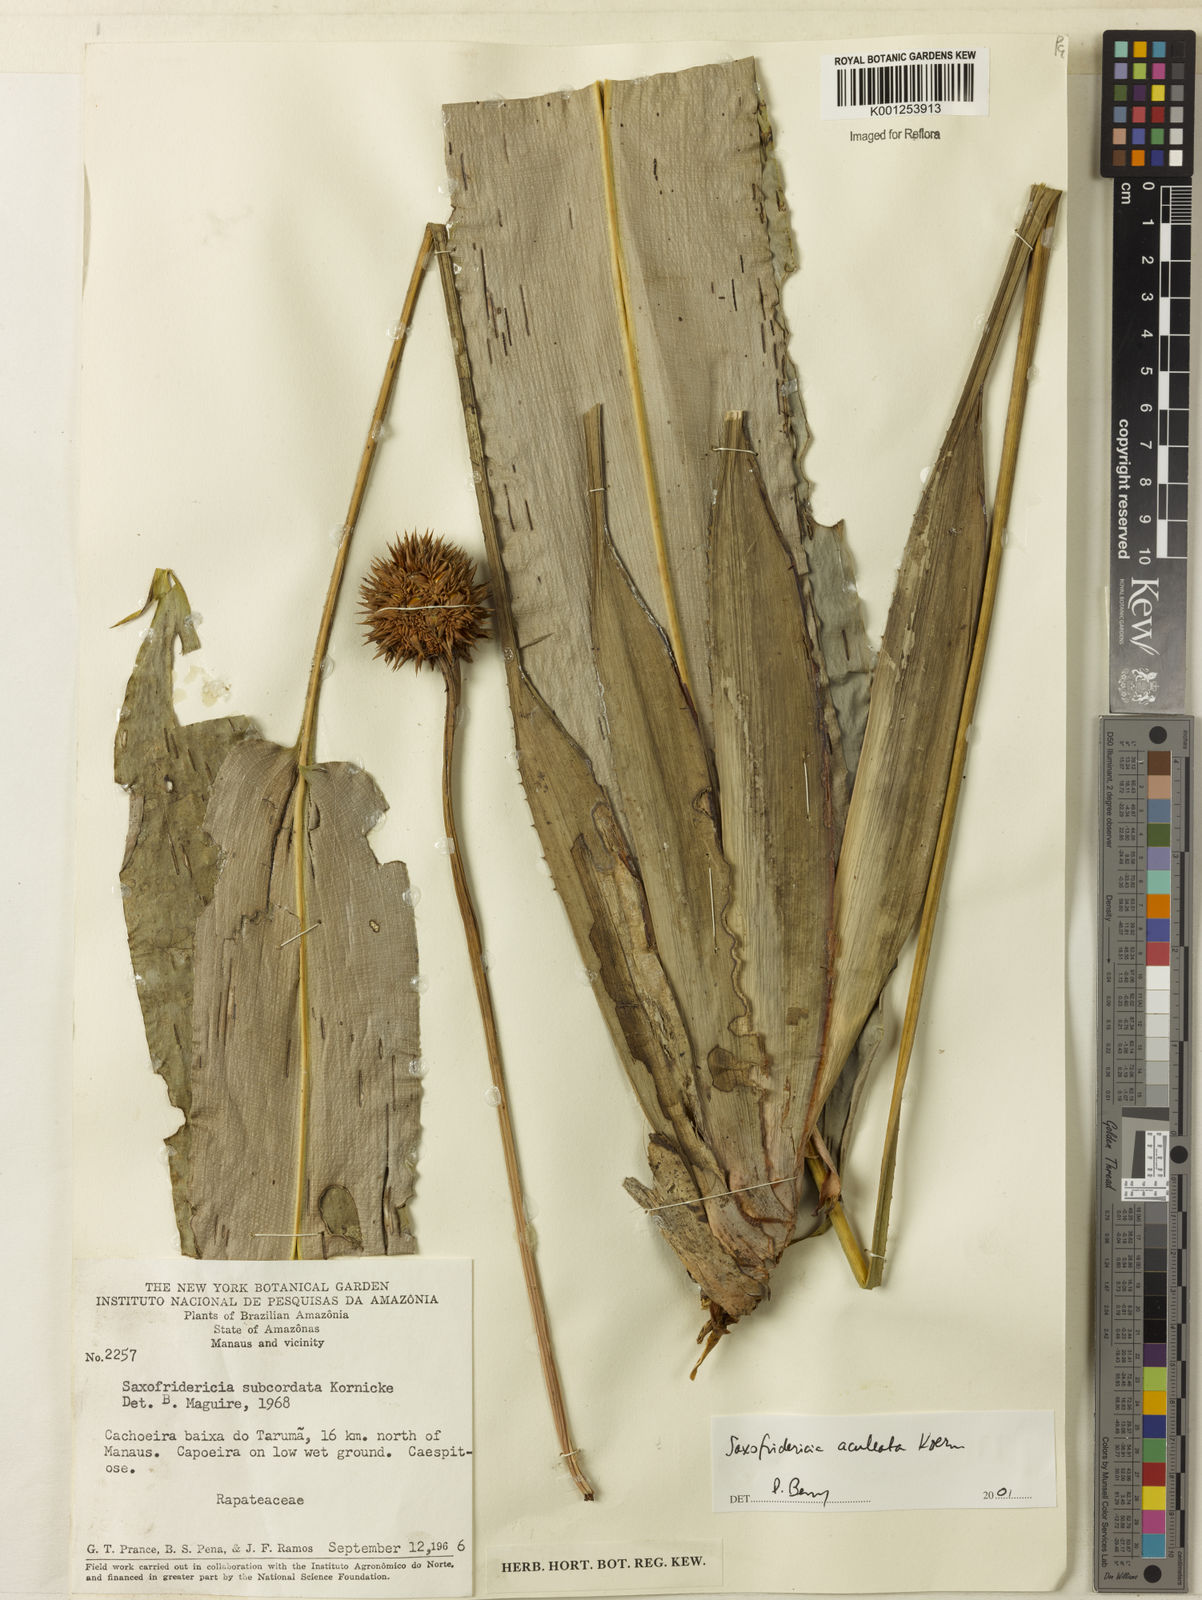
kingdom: Plantae
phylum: Tracheophyta
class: Liliopsida
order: Poales
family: Rapateaceae
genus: Saxofridericia
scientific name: Saxofridericia aculeata
